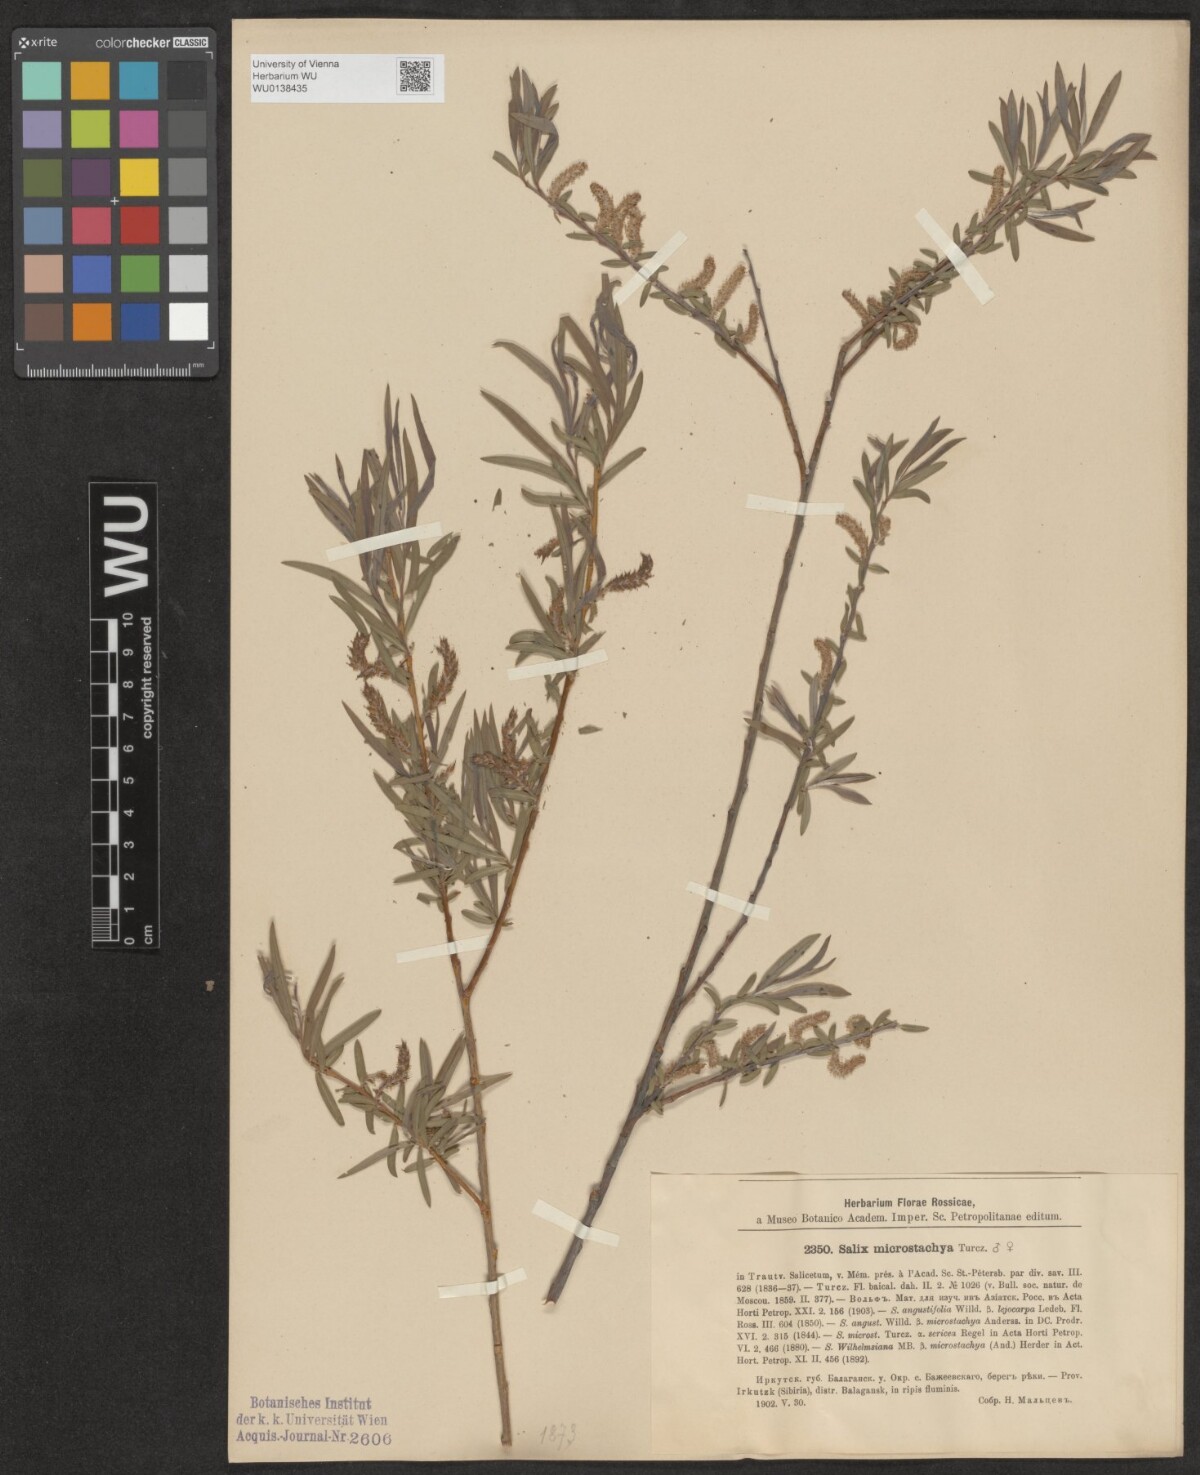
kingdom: Plantae
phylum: Tracheophyta
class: Magnoliopsida
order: Malpighiales
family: Salicaceae
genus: Salix
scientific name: Salix microstachya
